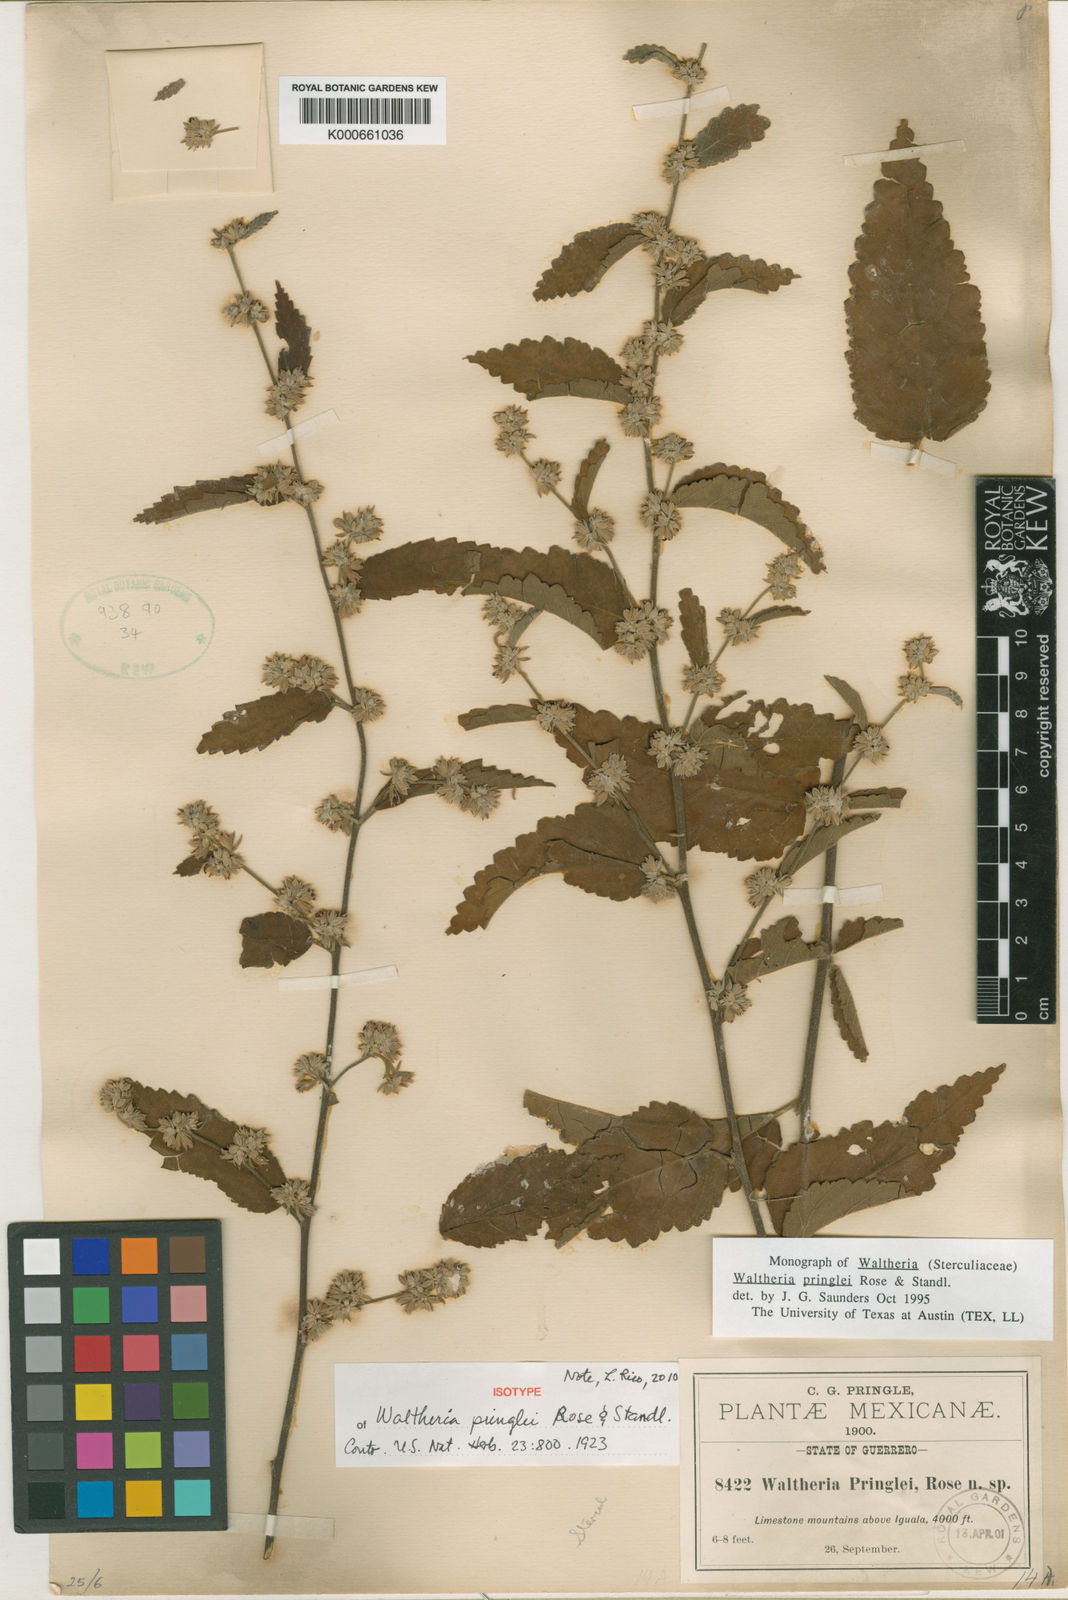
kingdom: Plantae
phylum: Tracheophyta
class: Magnoliopsida
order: Malvales
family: Malvaceae
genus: Waltheria
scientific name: Waltheria pringlei
